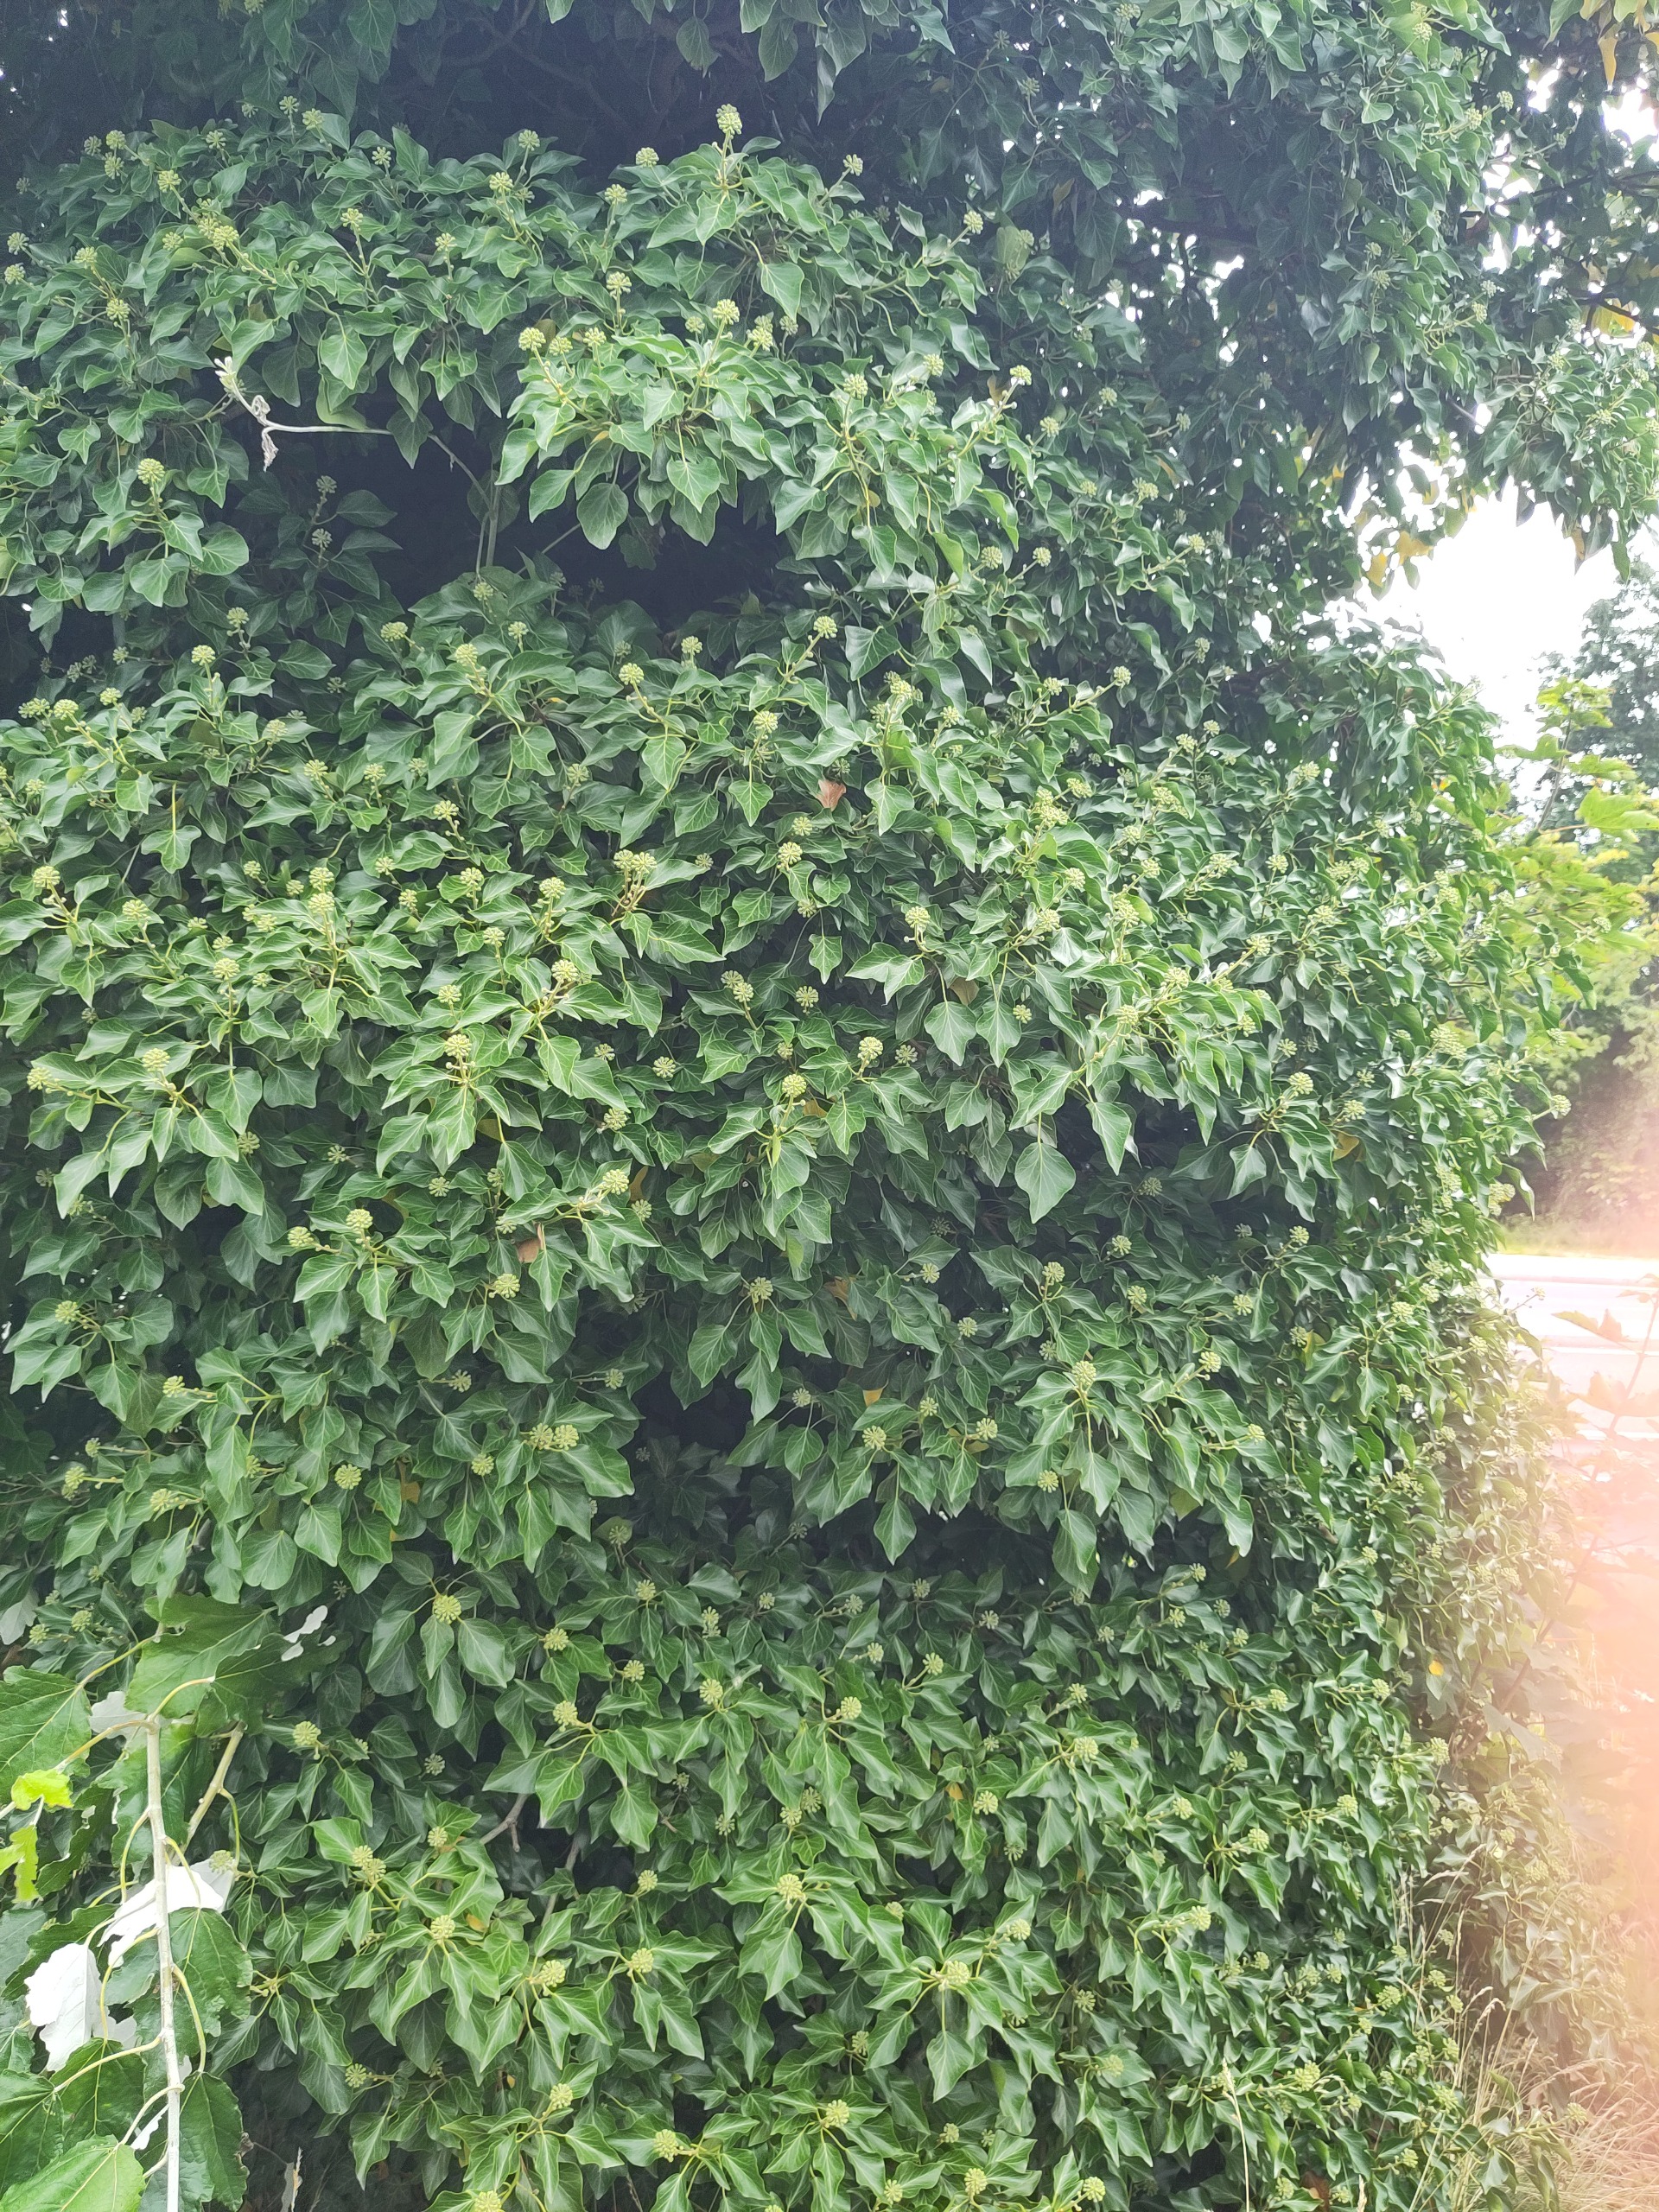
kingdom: Plantae
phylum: Tracheophyta
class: Magnoliopsida
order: Apiales
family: Araliaceae
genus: Hedera
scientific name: Hedera helix
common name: Vedbend
